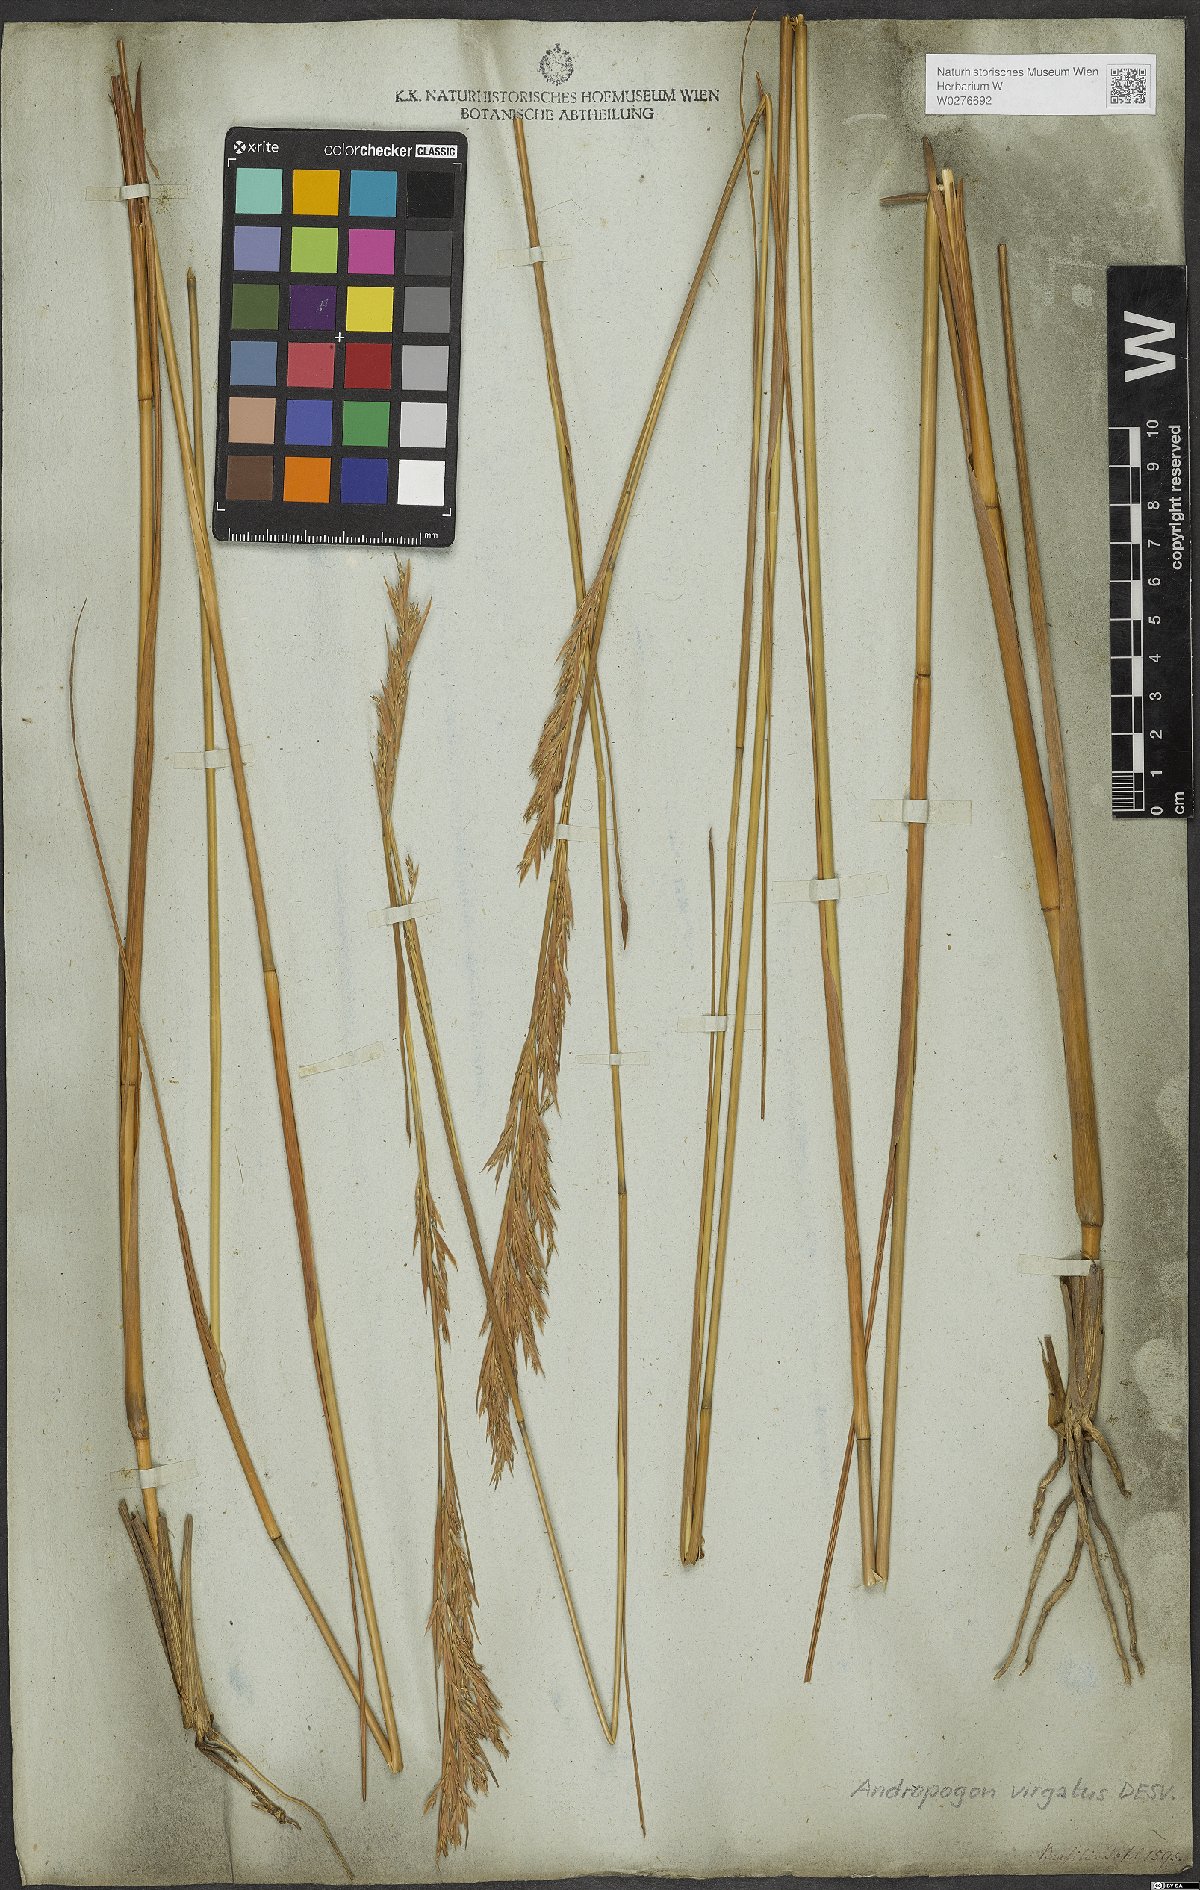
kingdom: Plantae
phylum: Tracheophyta
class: Liliopsida
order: Poales
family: Poaceae
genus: Andropogon
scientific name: Andropogon virgatus
